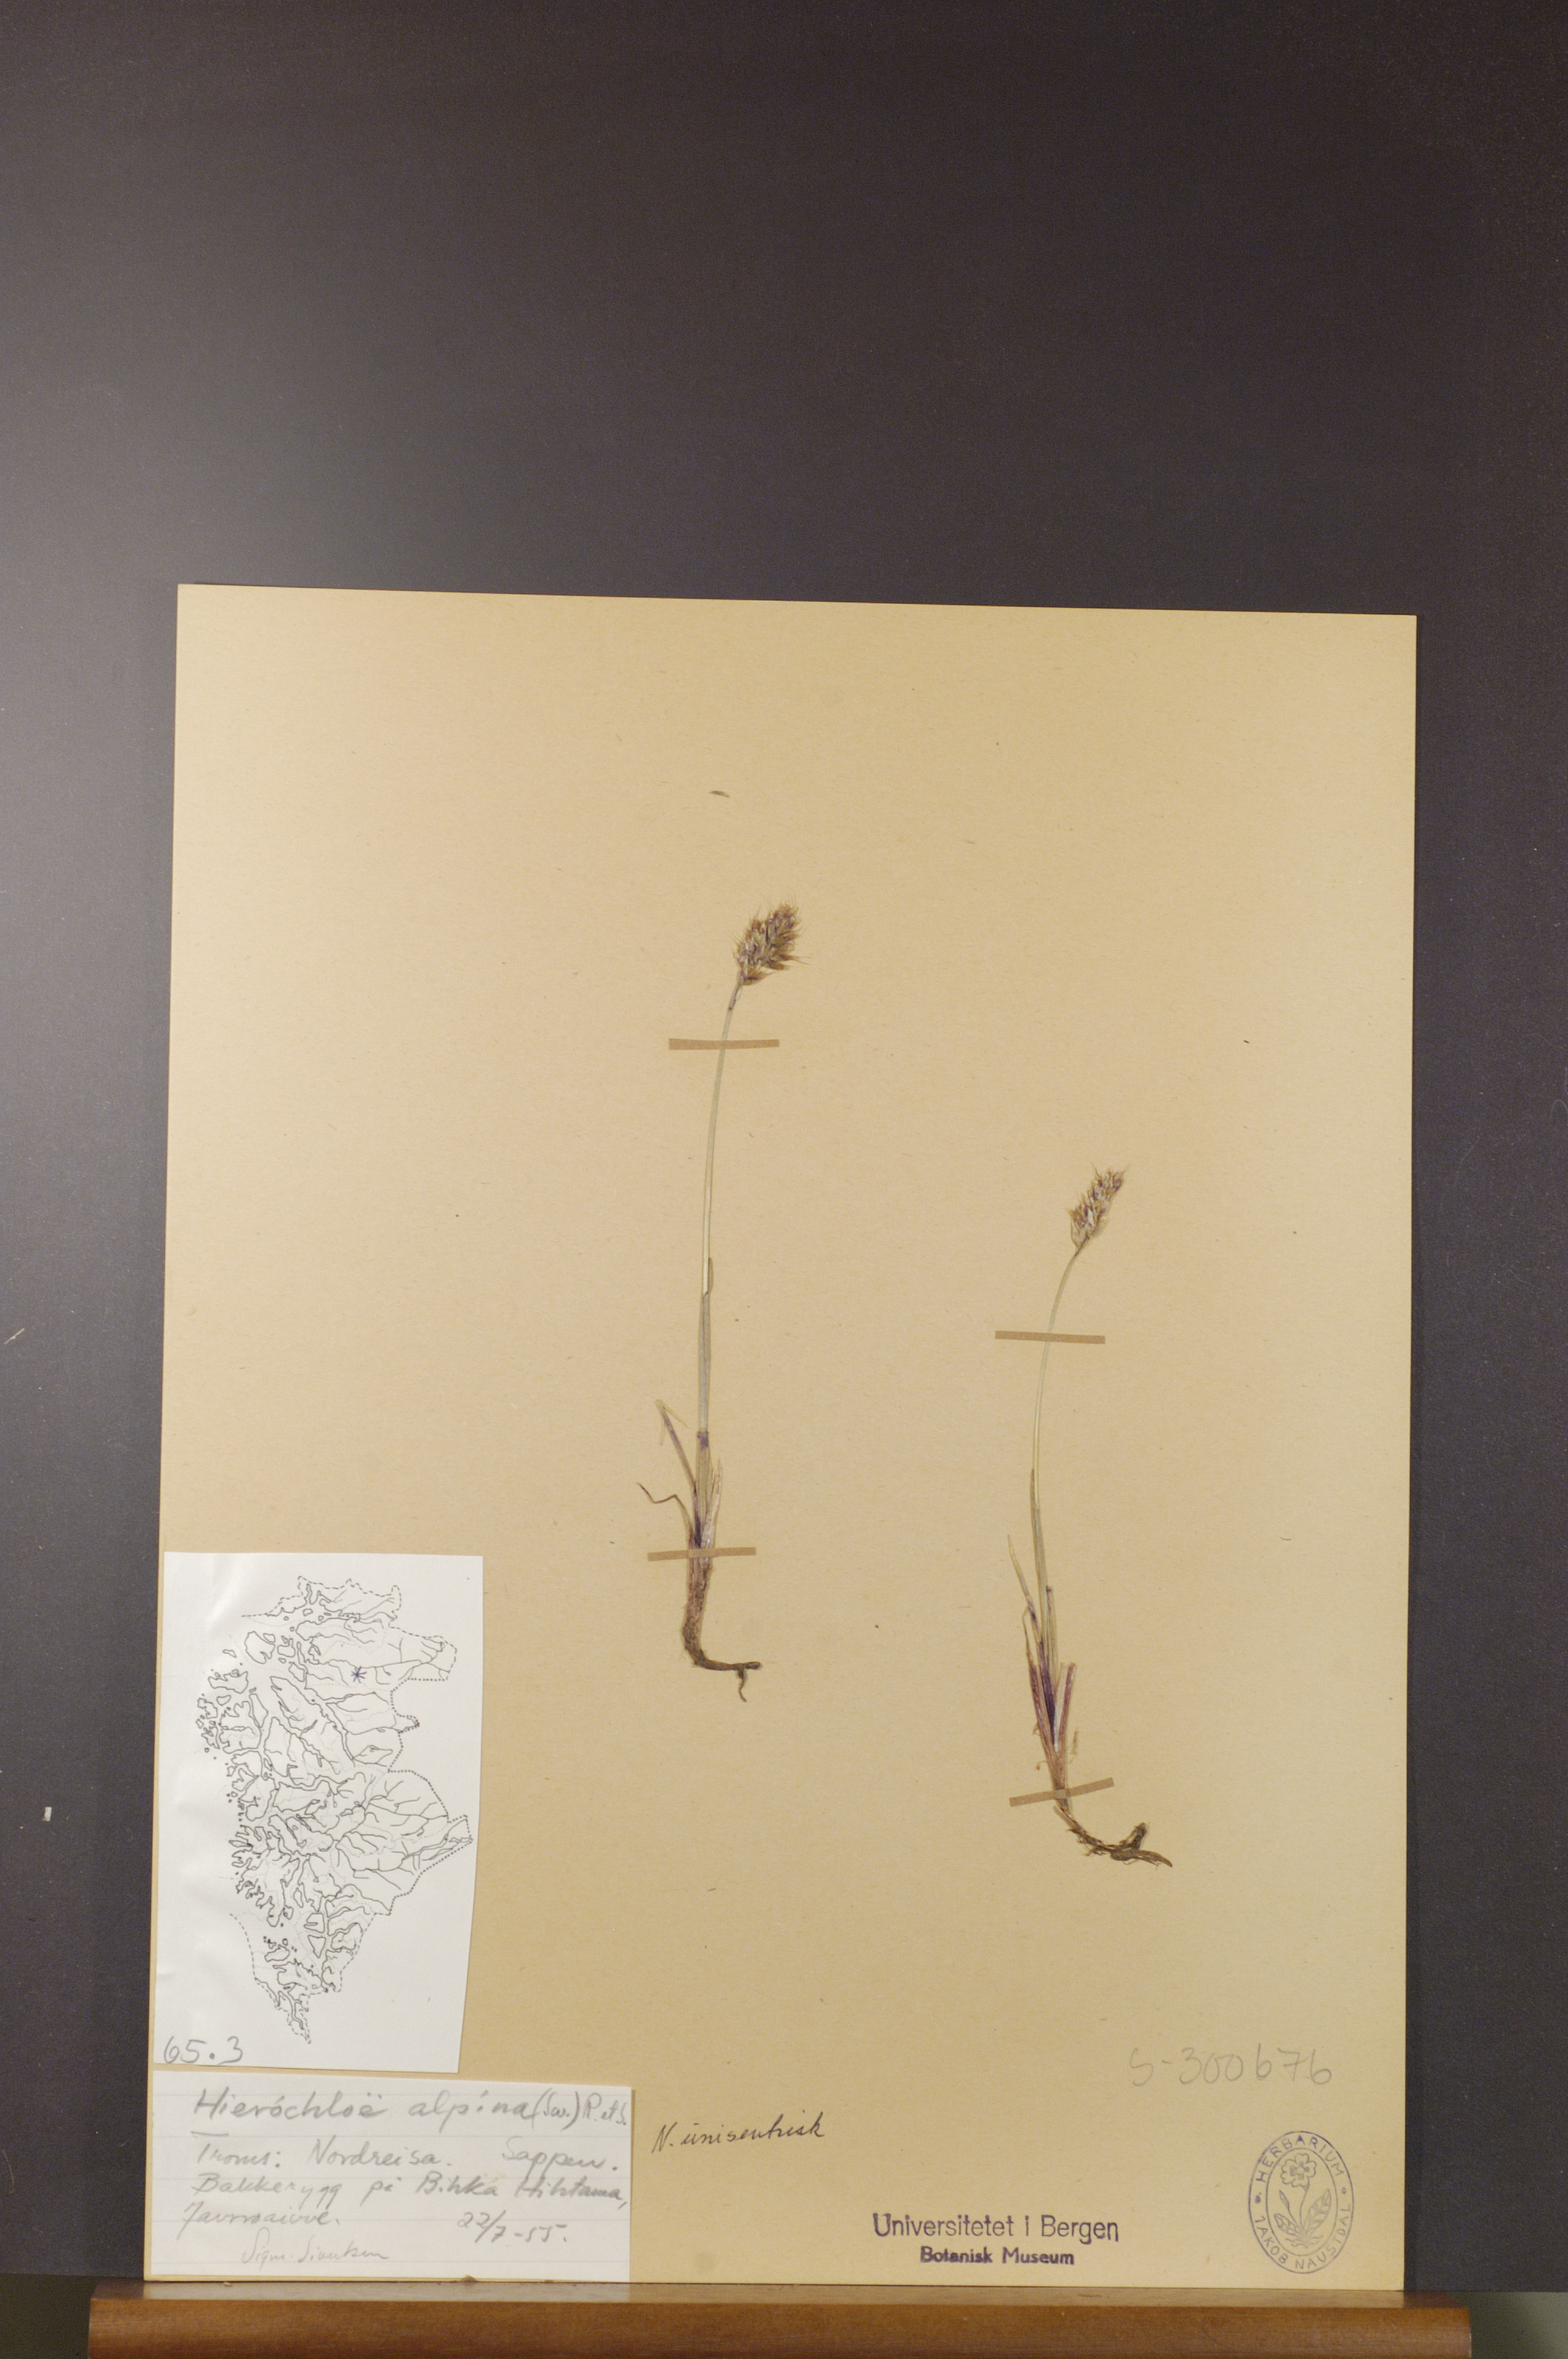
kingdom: Plantae
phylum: Tracheophyta
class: Liliopsida
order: Poales
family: Poaceae
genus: Anthoxanthum
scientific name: Anthoxanthum monticola
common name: Alpine sweetgrass
